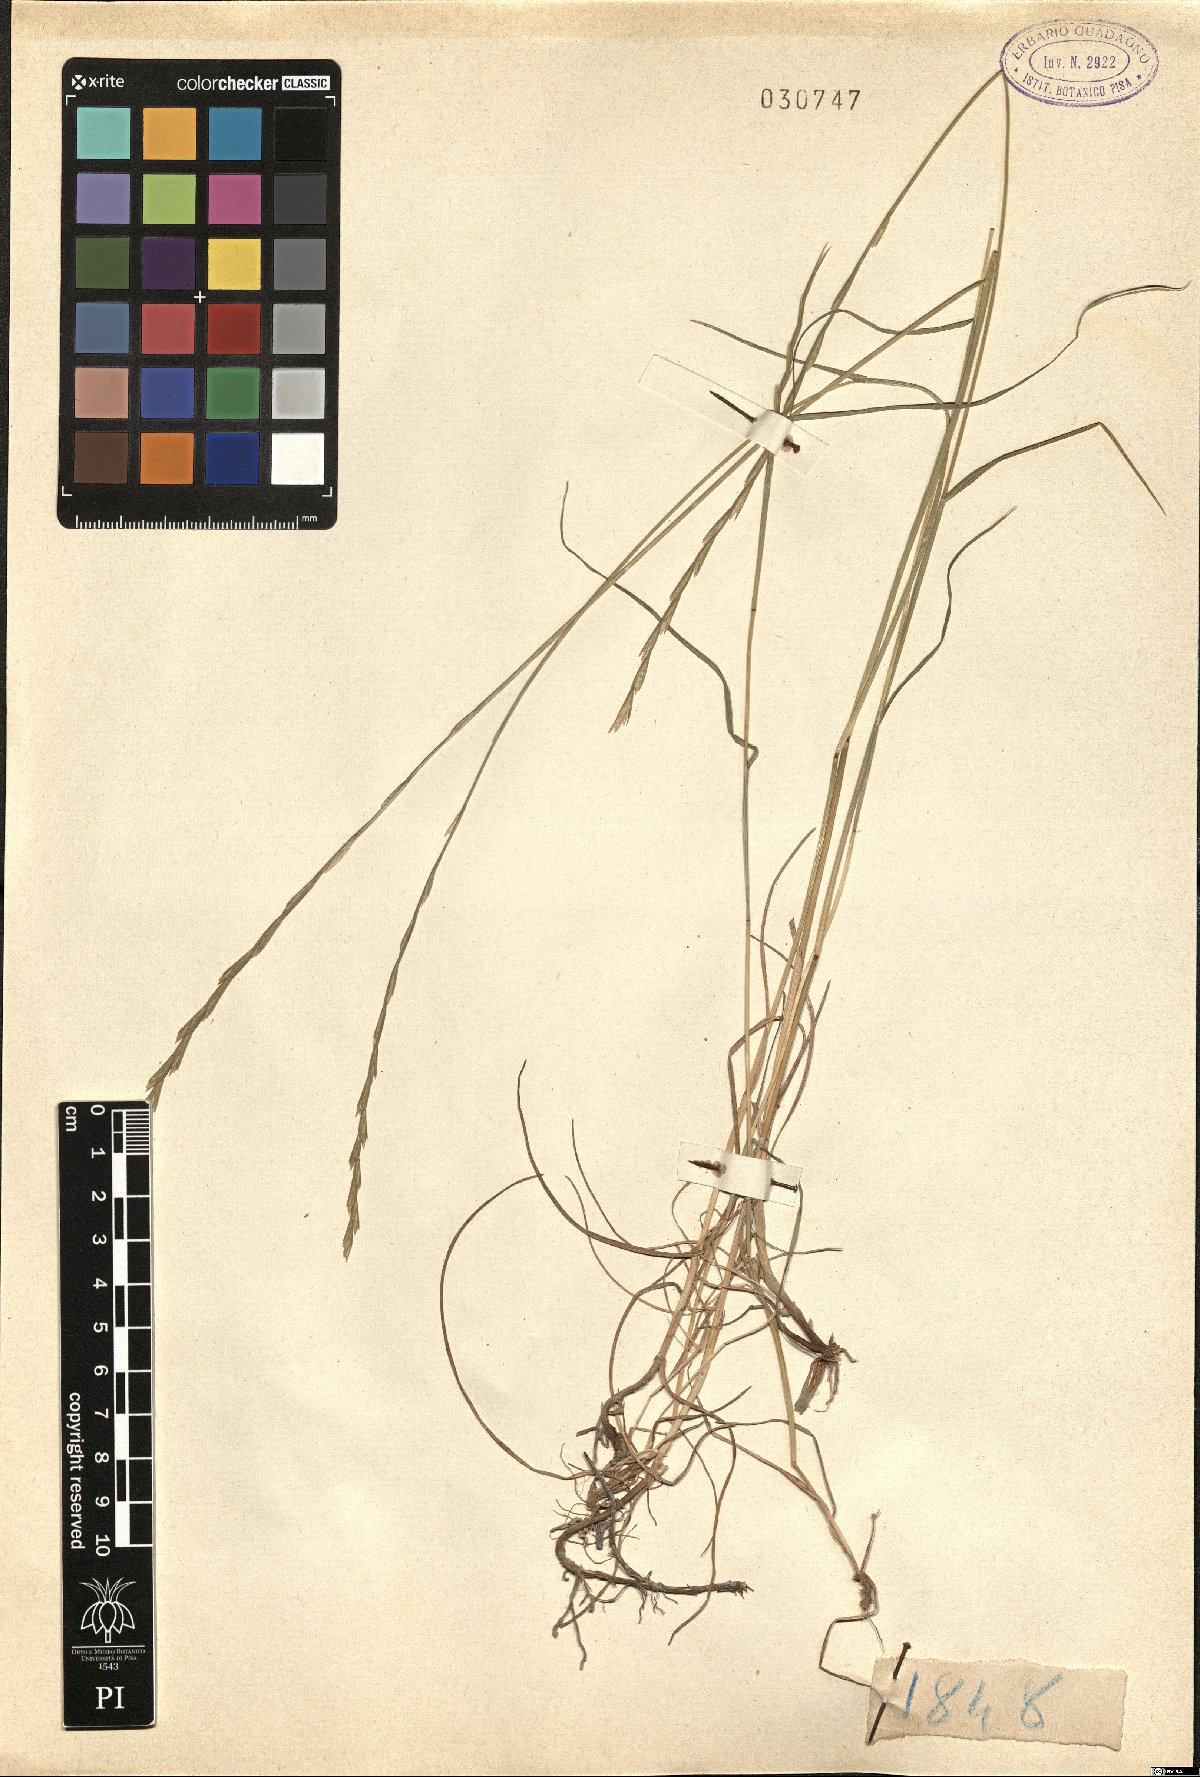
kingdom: Plantae
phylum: Tracheophyta
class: Liliopsida
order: Poales
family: Poaceae
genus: Lolium
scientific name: Lolium
